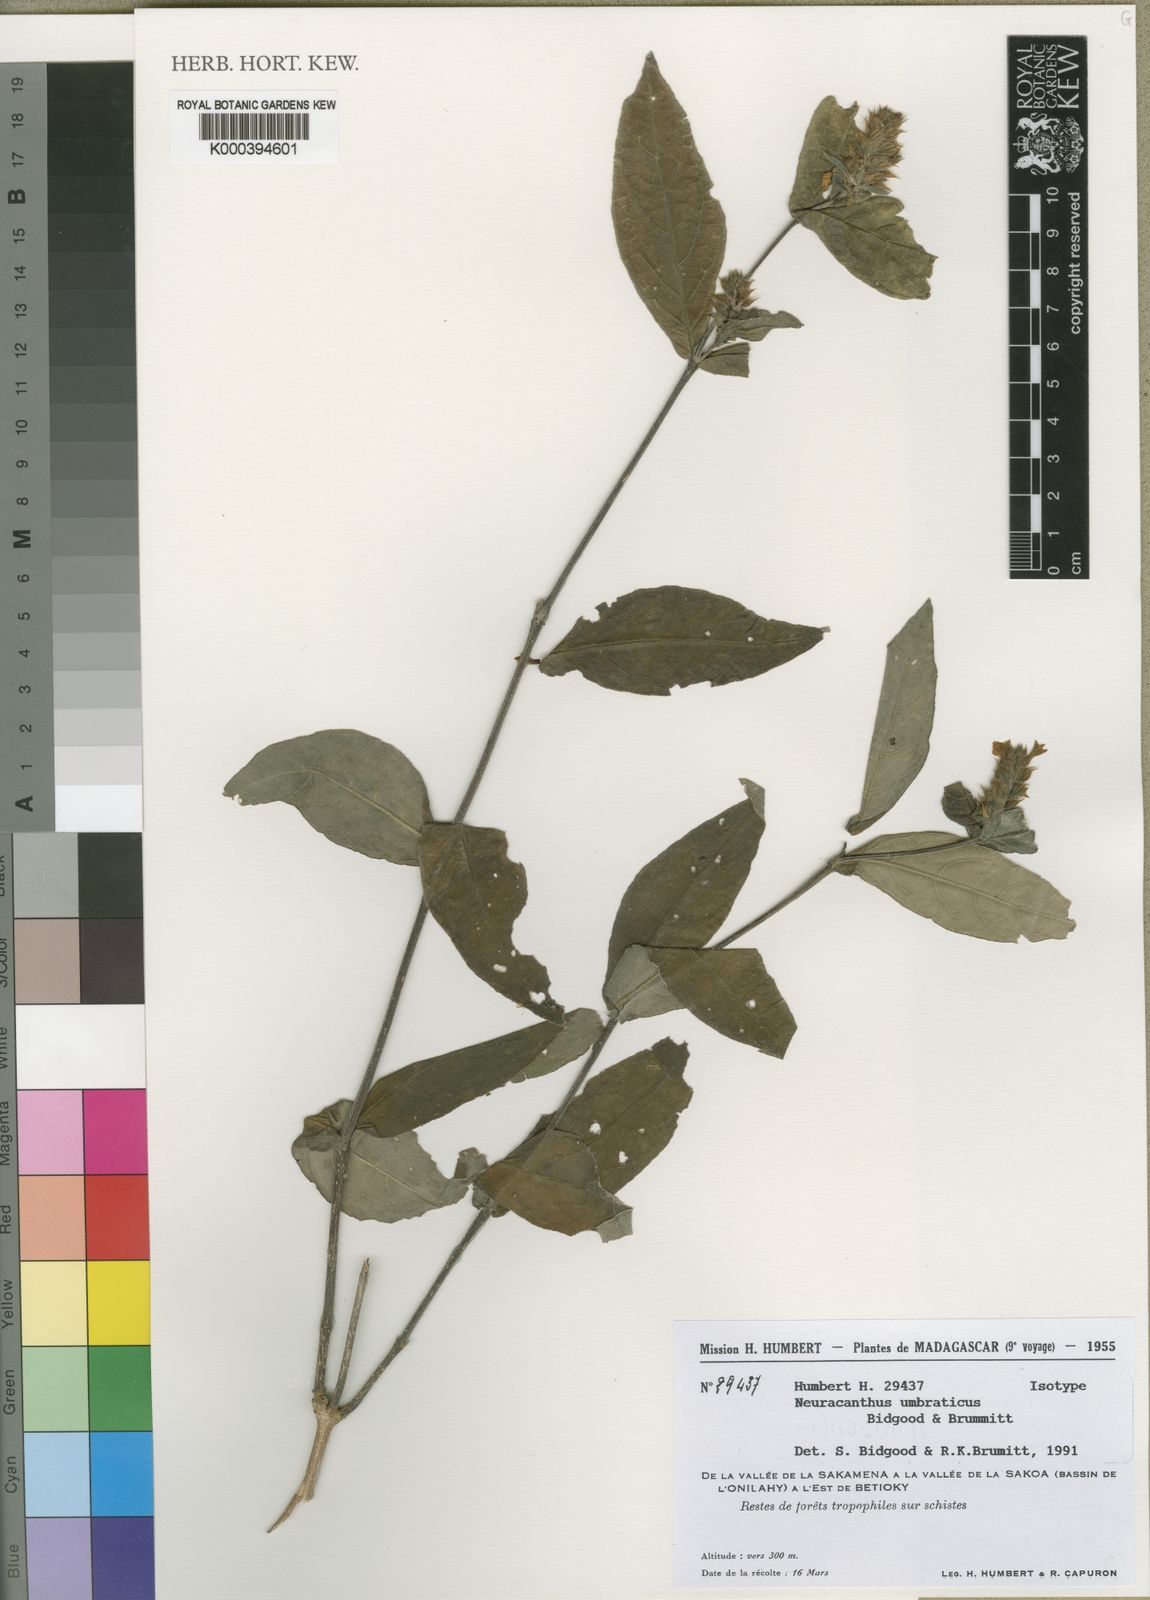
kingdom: Plantae
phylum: Tracheophyta
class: Magnoliopsida
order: Lamiales
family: Acanthaceae
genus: Neuracanthus
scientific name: Neuracanthus umbraticus
